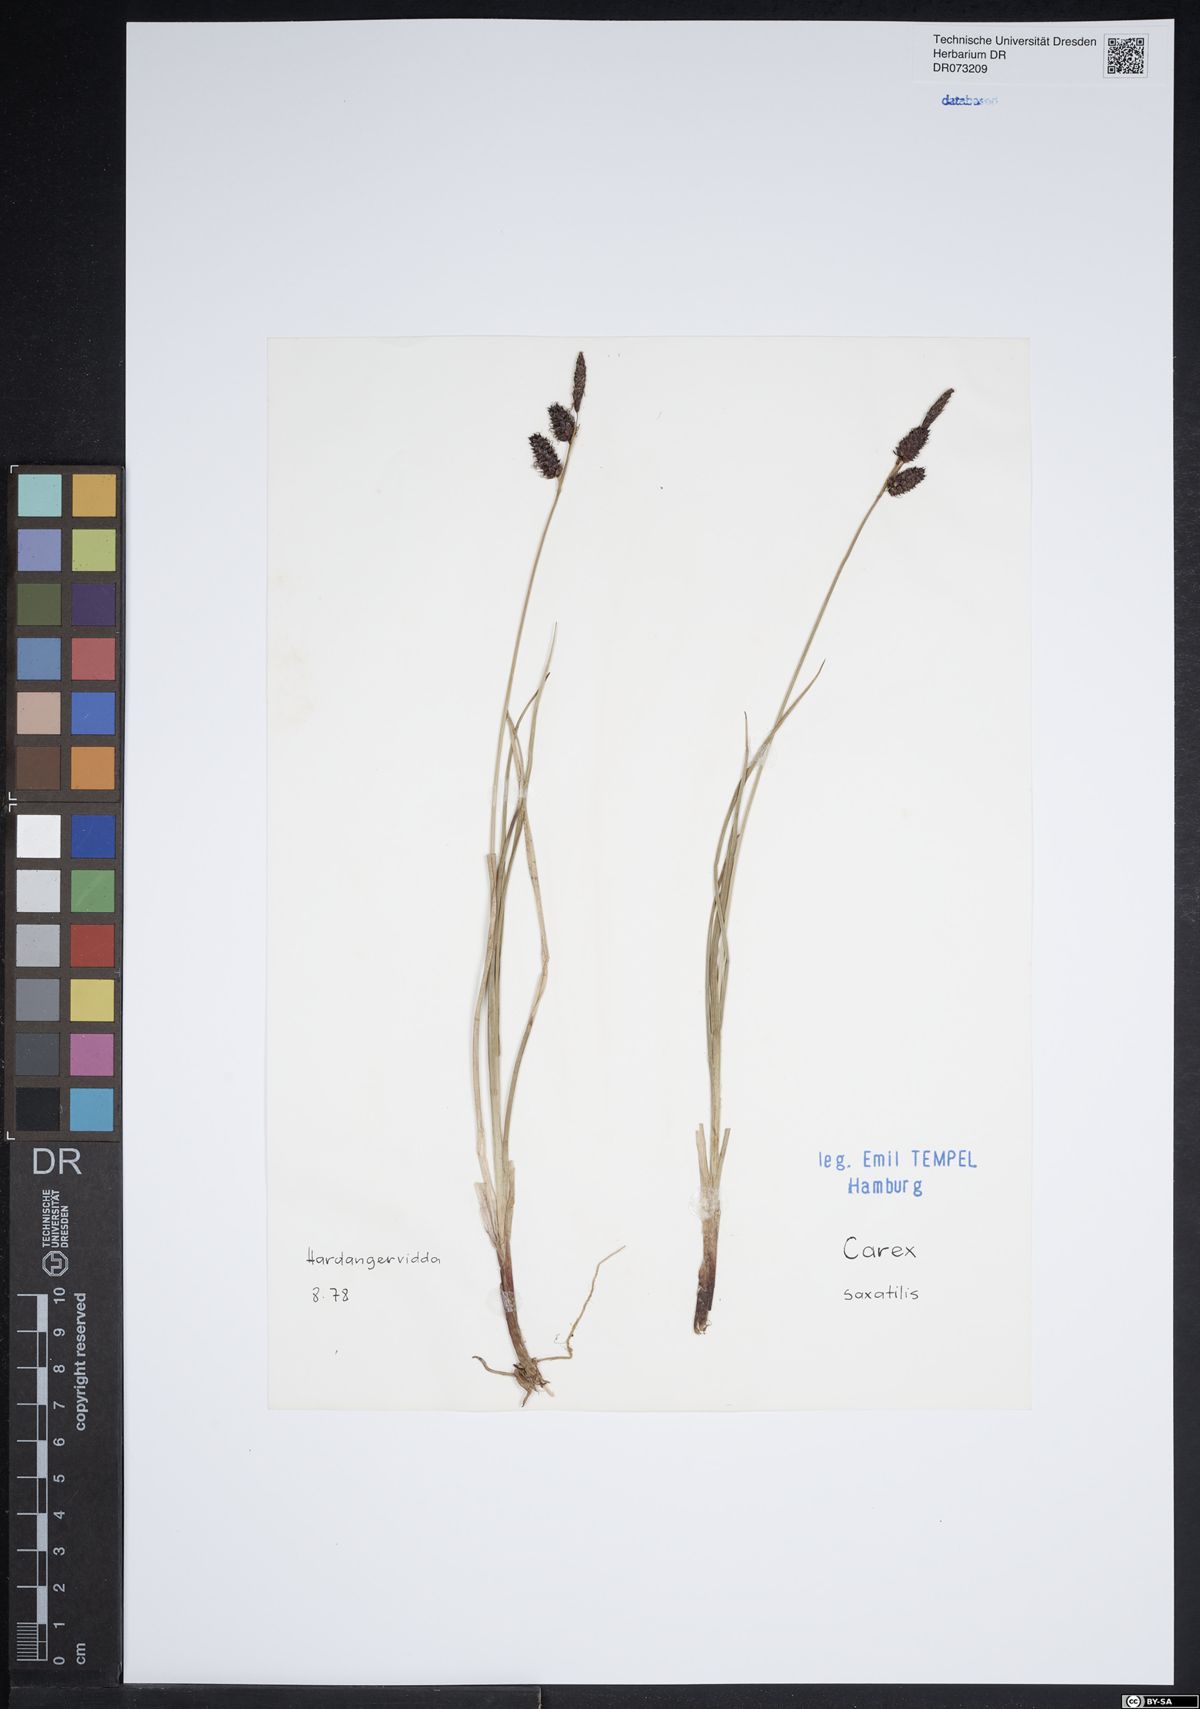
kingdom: Plantae
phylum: Tracheophyta
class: Liliopsida
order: Poales
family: Cyperaceae
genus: Carex
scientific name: Carex saxatilis
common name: Russet sedge
